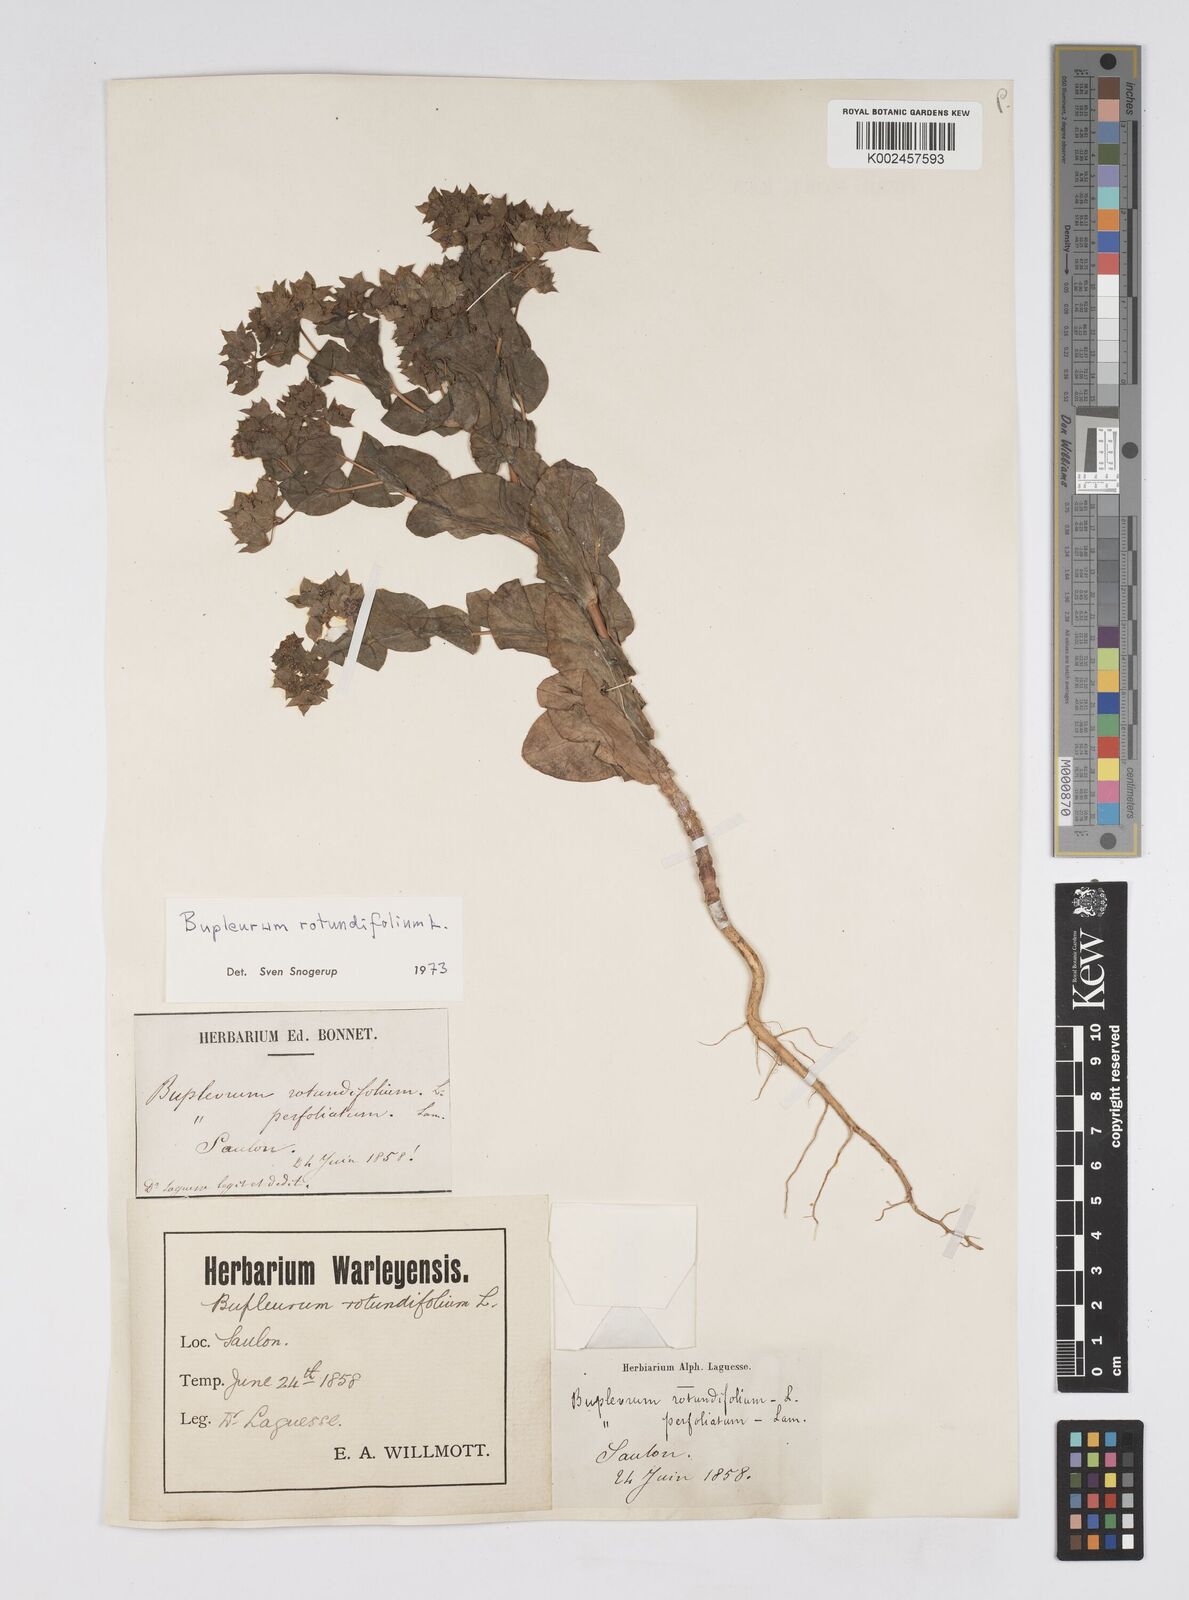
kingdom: Plantae
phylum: Tracheophyta
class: Magnoliopsida
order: Apiales
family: Apiaceae
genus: Bupleurum
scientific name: Bupleurum rotundifolium
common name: Thorow-wax
